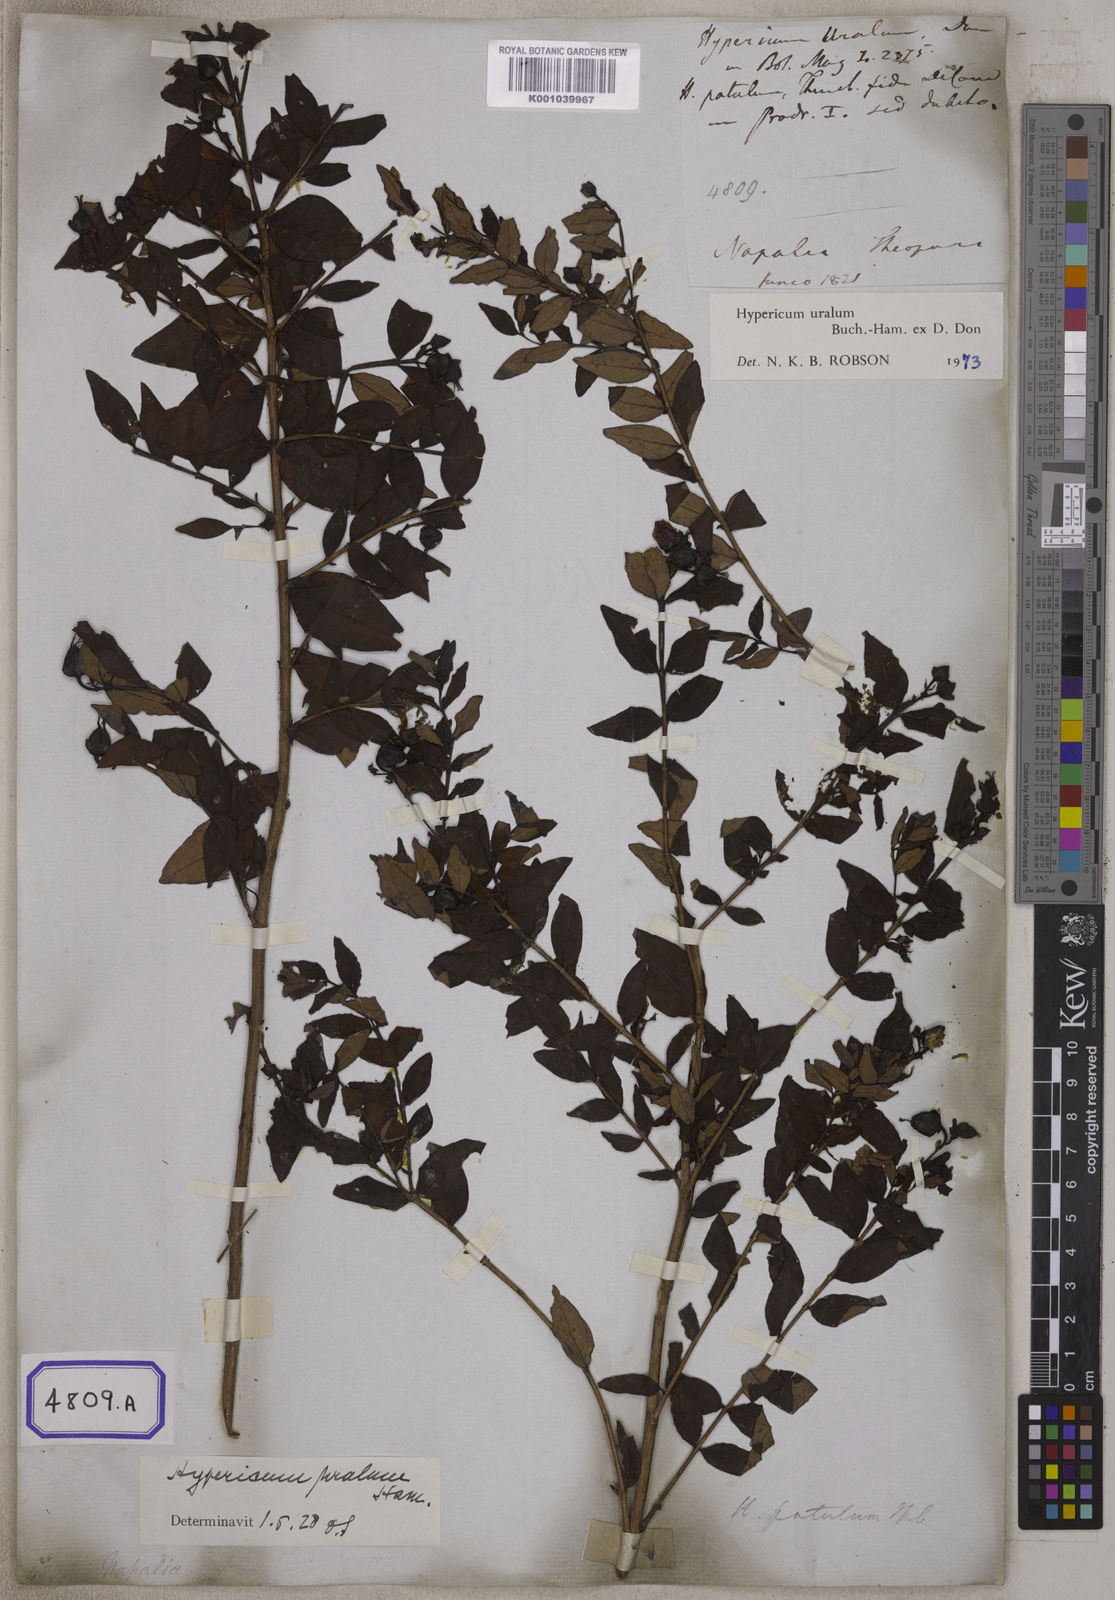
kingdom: Plantae
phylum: Tracheophyta
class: Magnoliopsida
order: Malpighiales
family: Hypericaceae
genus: Hypericum
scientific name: Hypericum patulum
